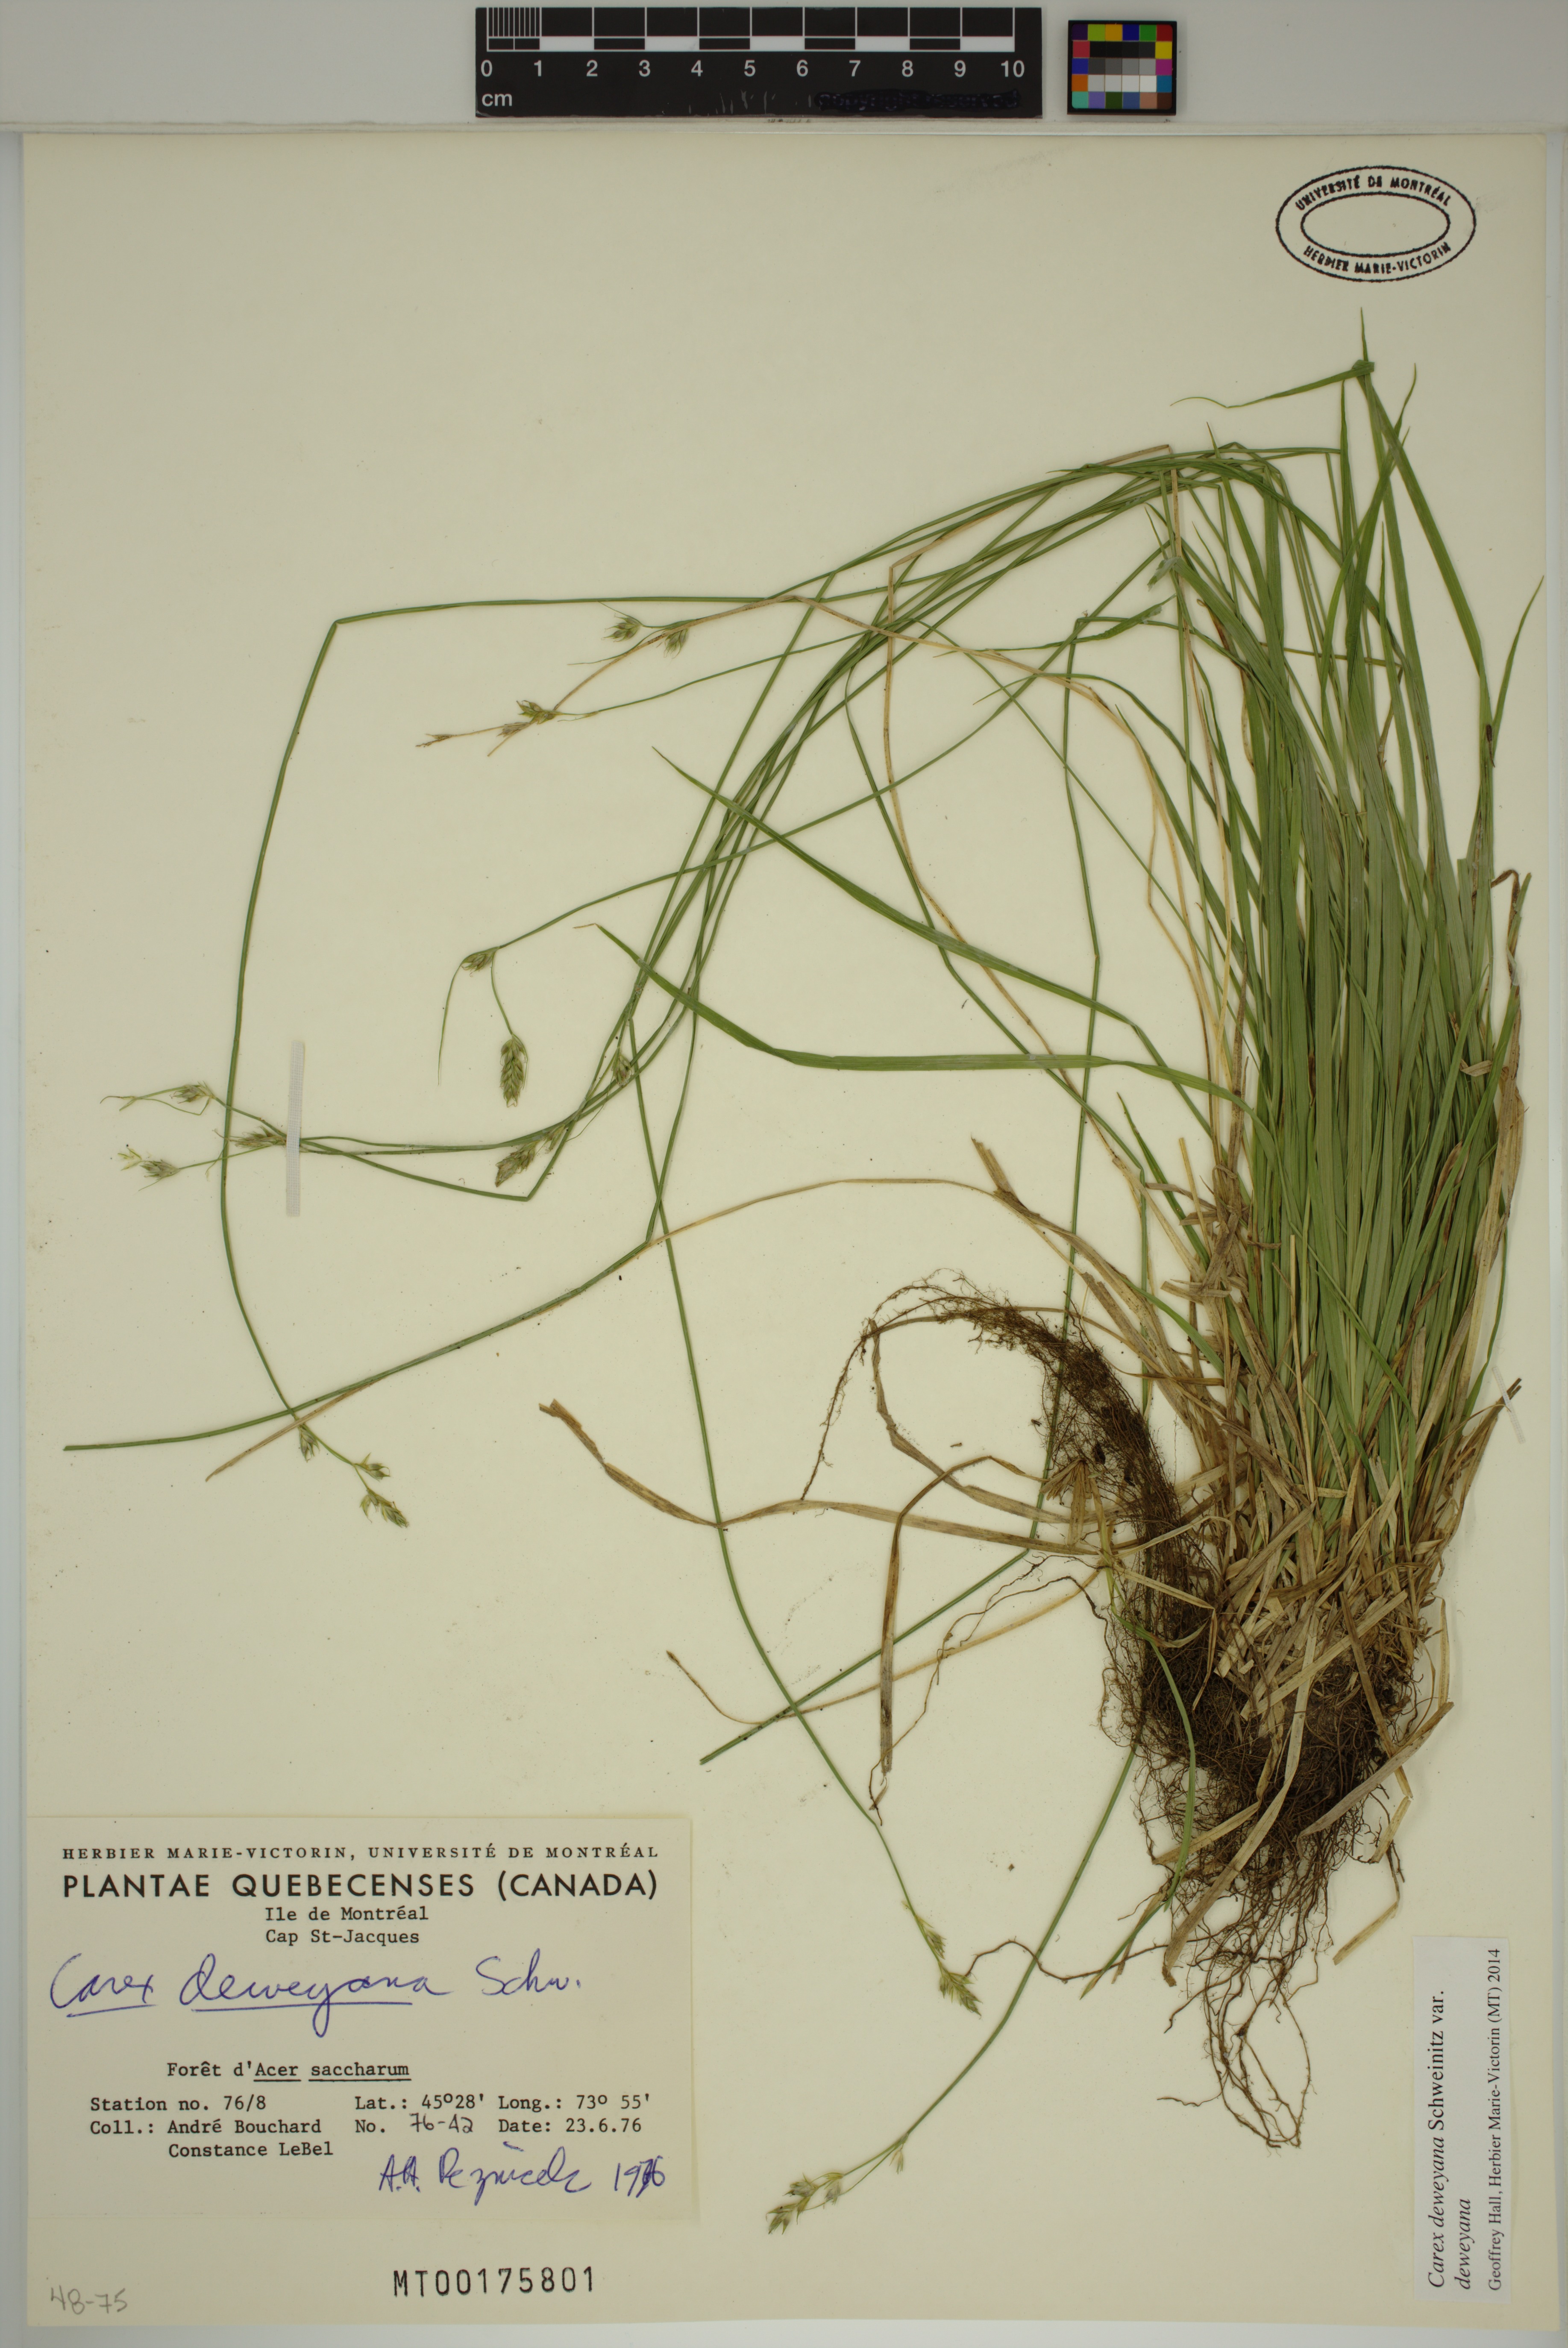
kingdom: Plantae
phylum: Tracheophyta
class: Liliopsida
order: Poales
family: Cyperaceae
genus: Carex
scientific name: Carex deweyana
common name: Dewey's sedge
